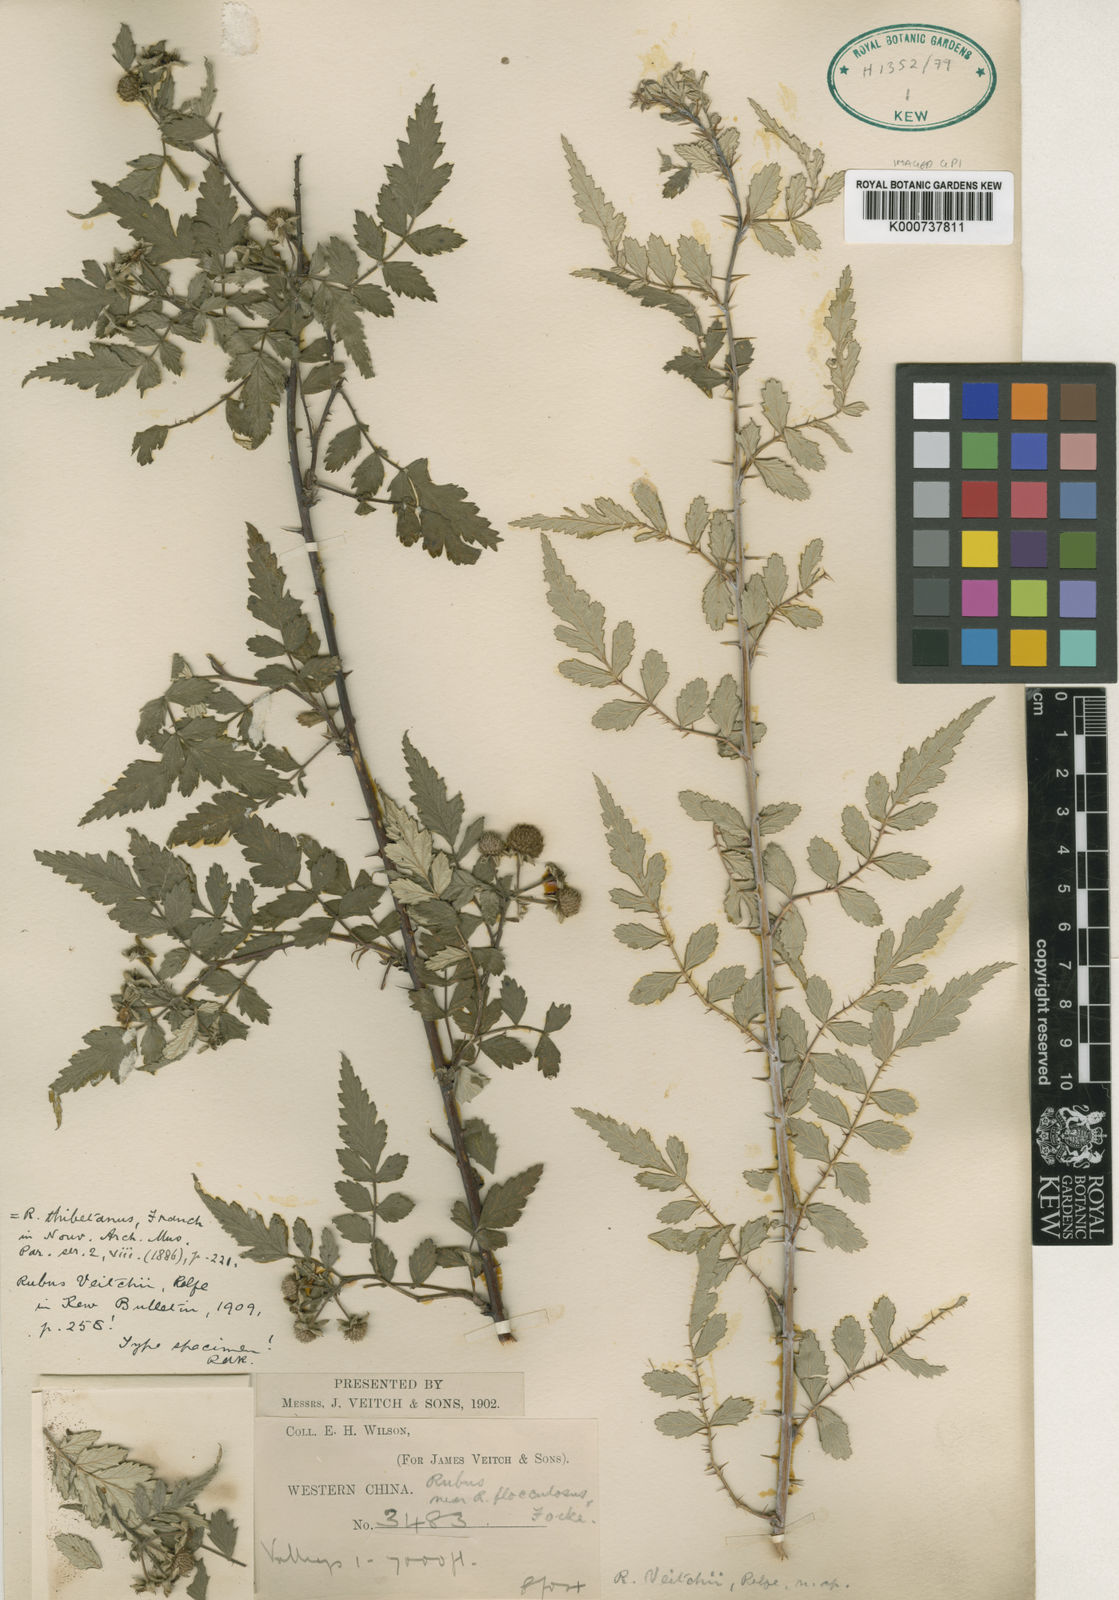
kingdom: Plantae
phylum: Tracheophyta
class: Magnoliopsida
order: Rosales
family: Rosaceae
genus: Rubus
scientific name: Rubus thibetanus
